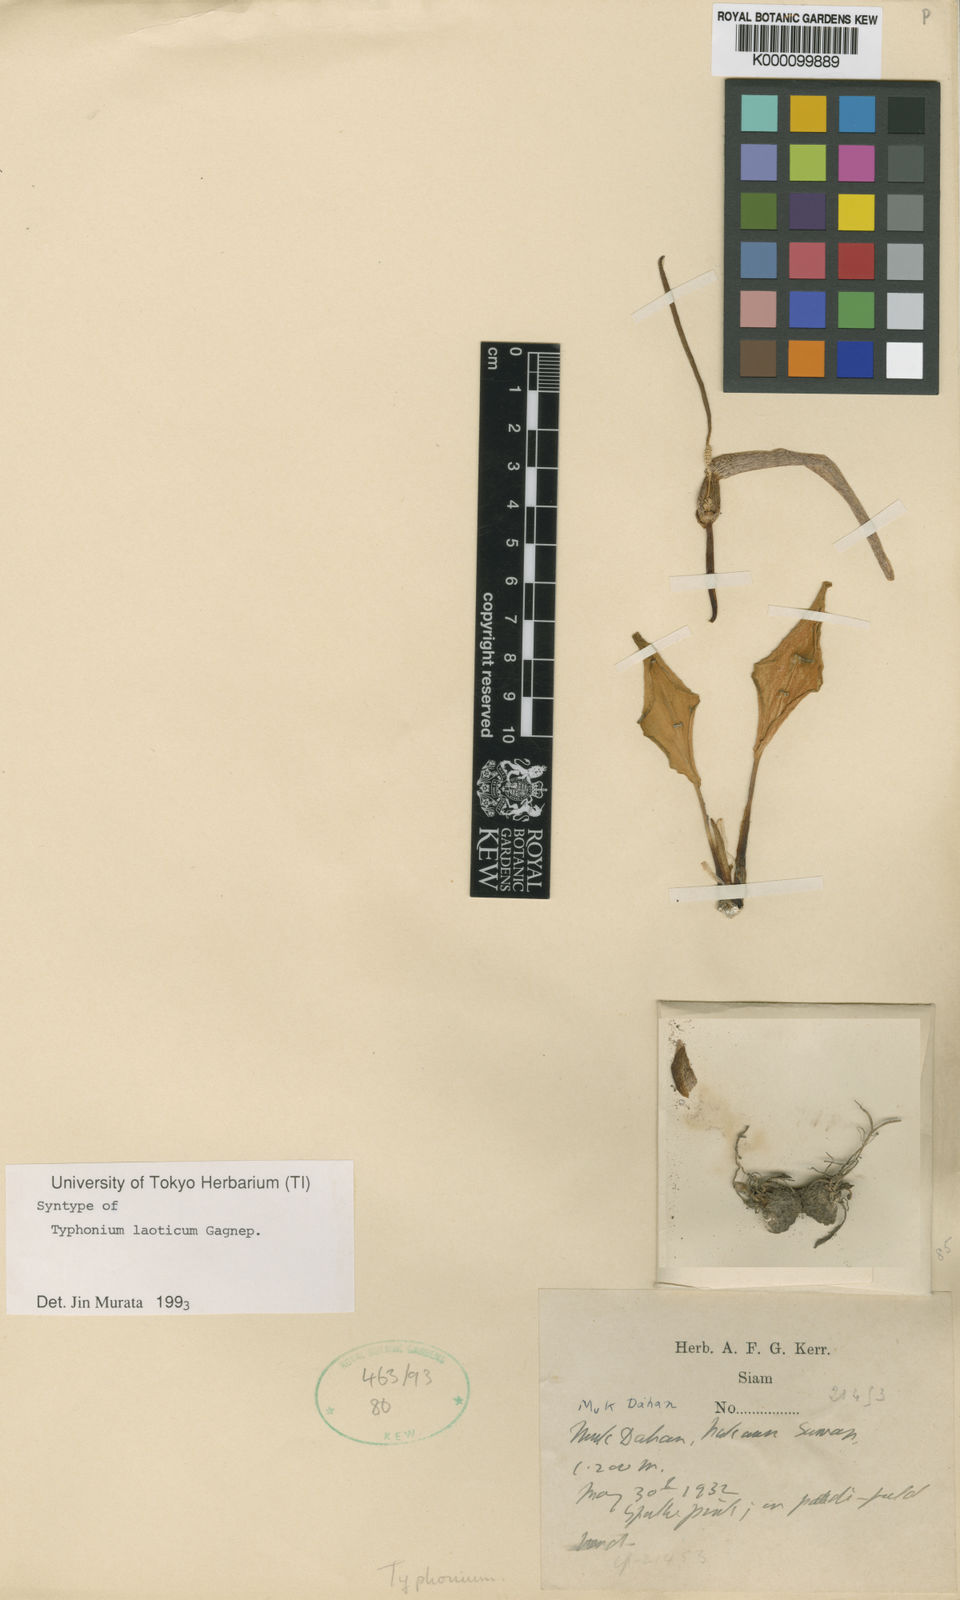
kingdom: Plantae
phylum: Tracheophyta
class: Liliopsida
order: Alismatales
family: Araceae
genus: Typhonium
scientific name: Typhonium laoticum
